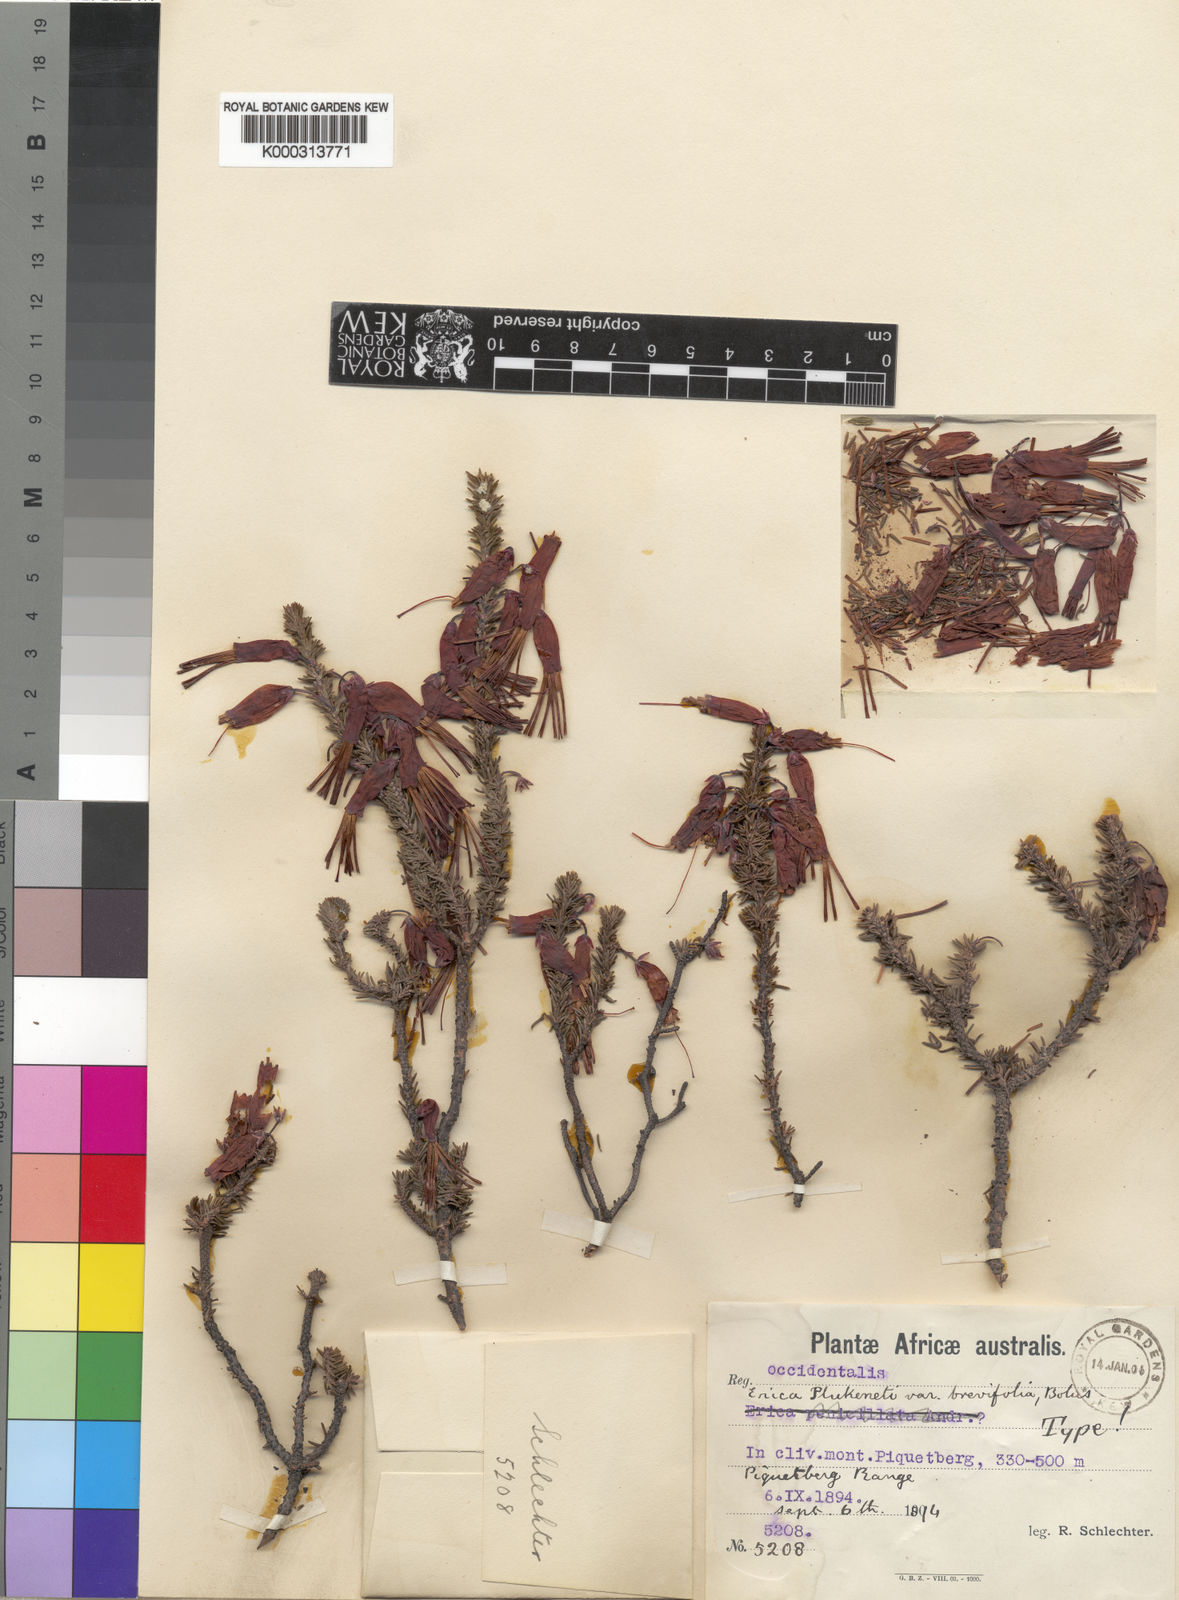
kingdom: Plantae
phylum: Tracheophyta
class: Magnoliopsida
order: Ericales
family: Ericaceae
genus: Erica
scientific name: Erica plukenetii
